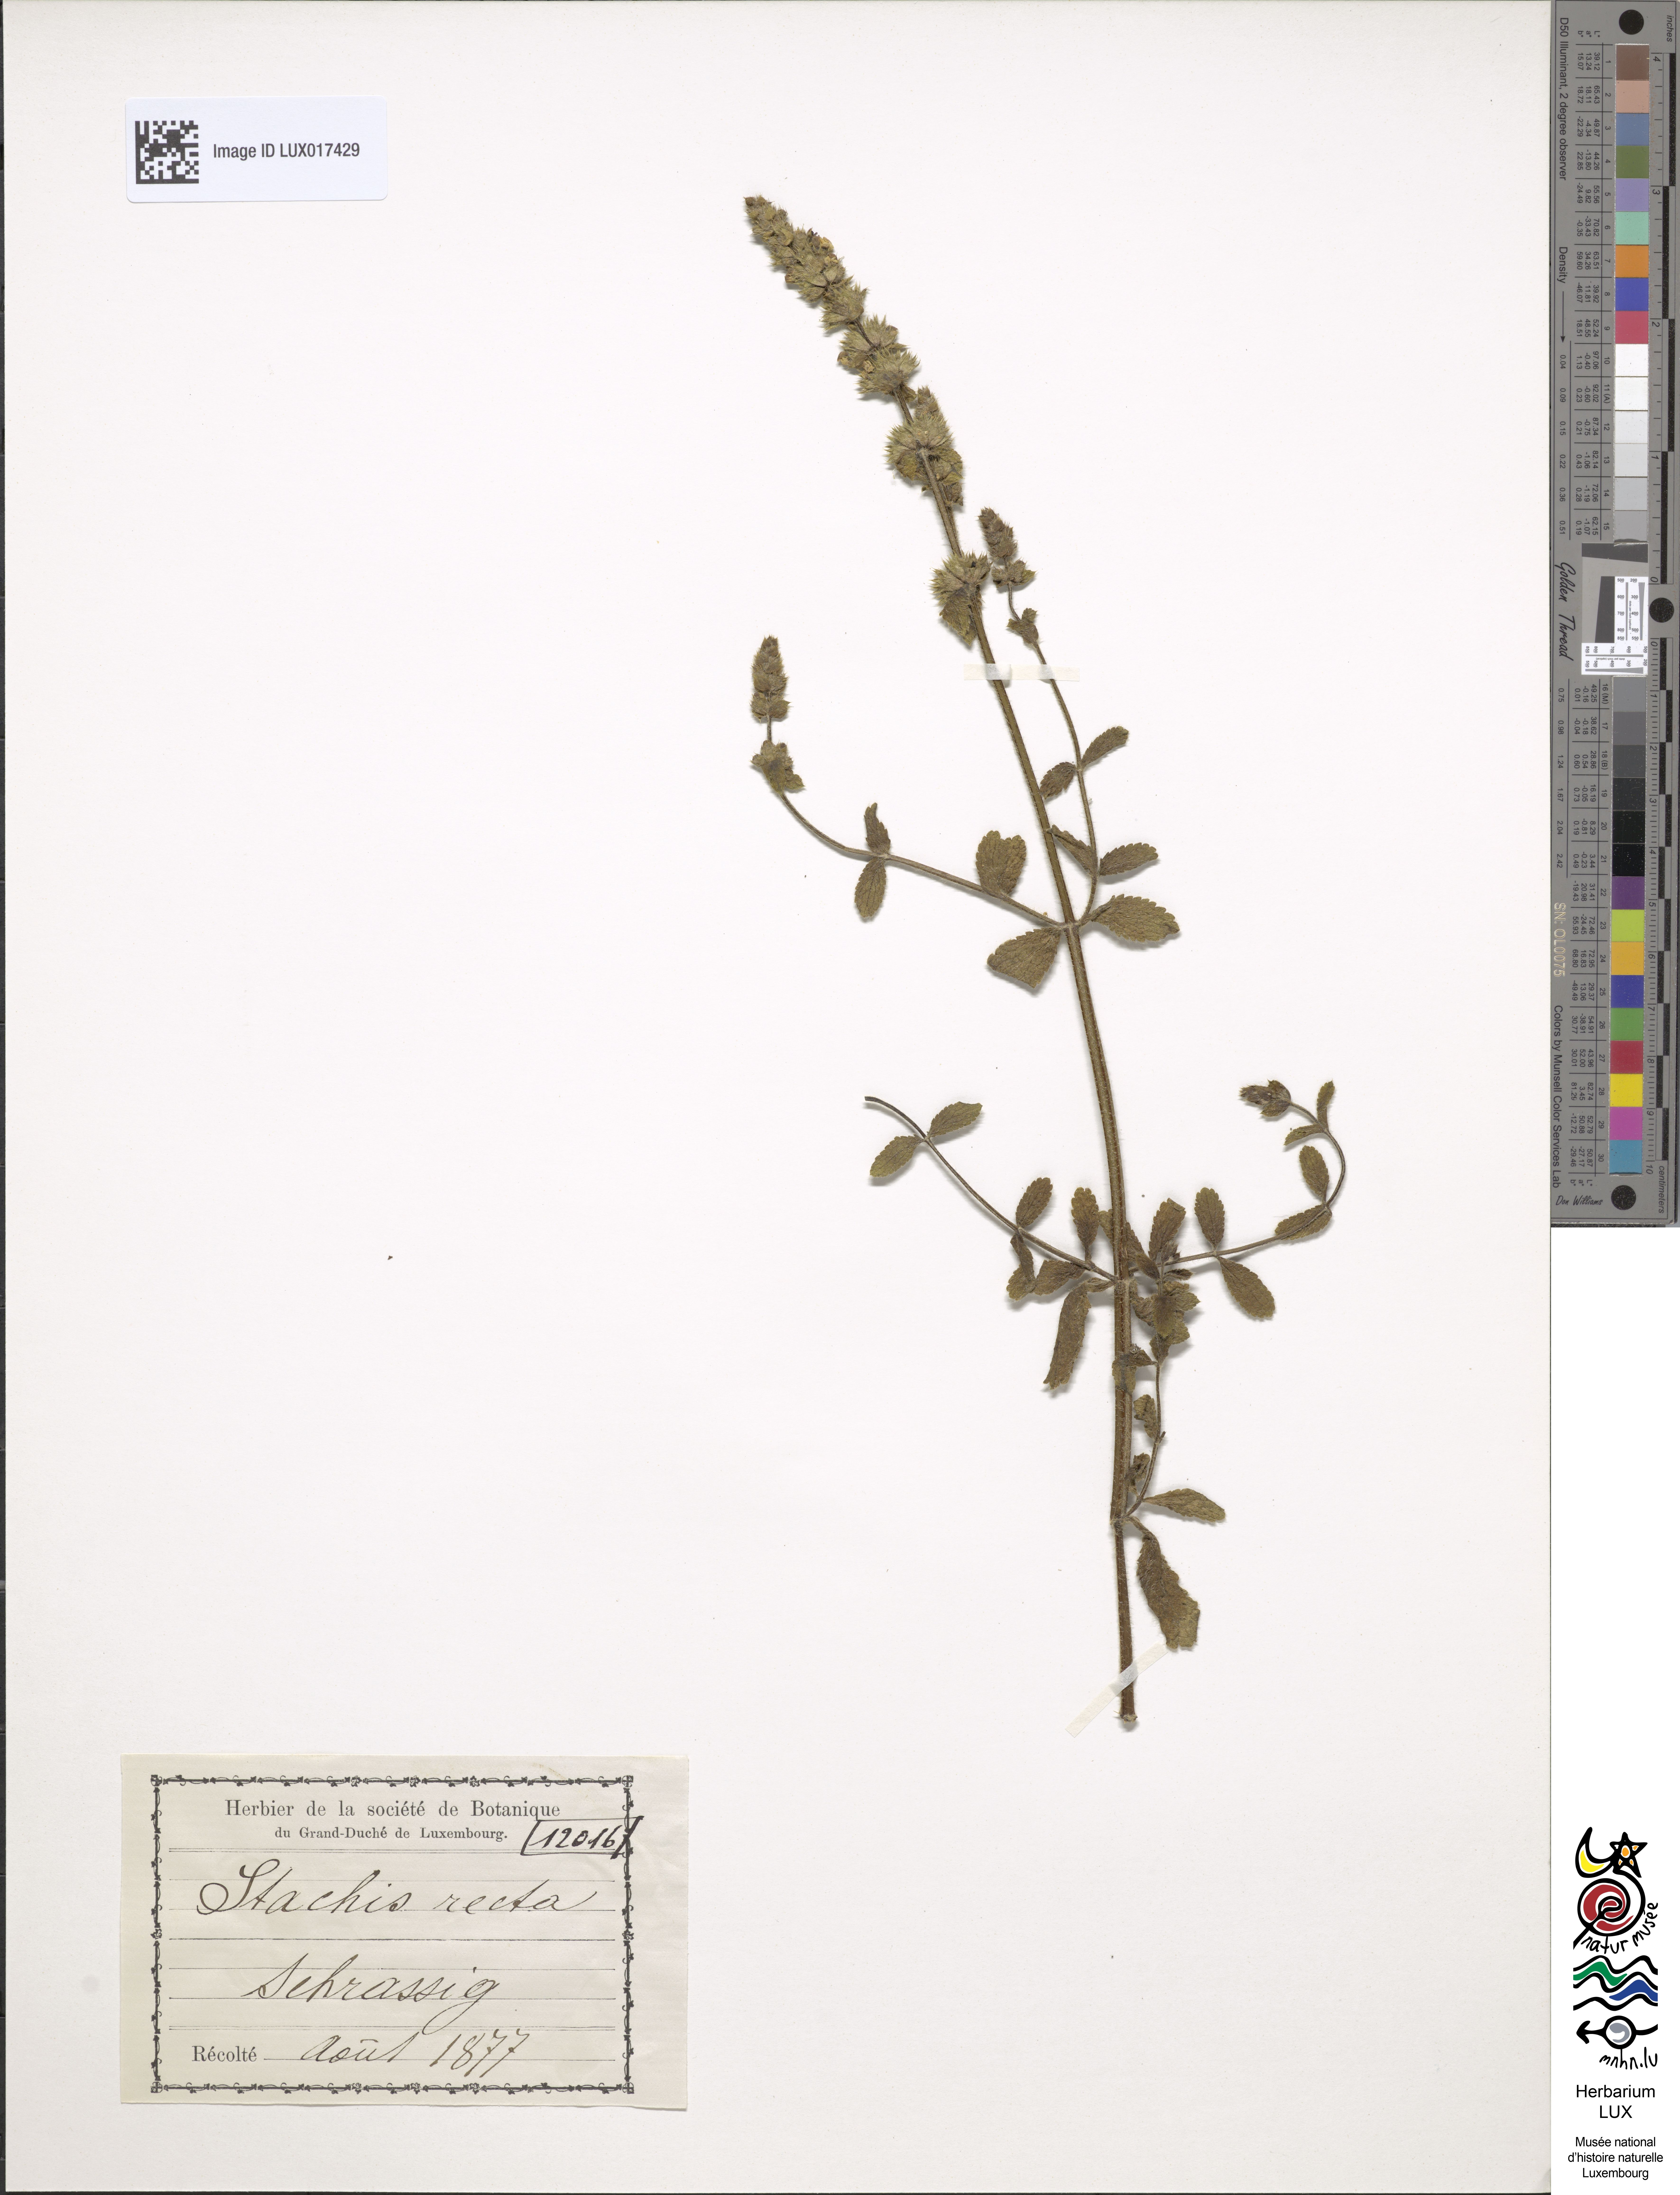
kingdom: Plantae
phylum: Tracheophyta
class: Magnoliopsida
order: Lamiales
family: Lamiaceae
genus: Stachys
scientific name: Stachys recta
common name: Perennial yellow-woundwort
